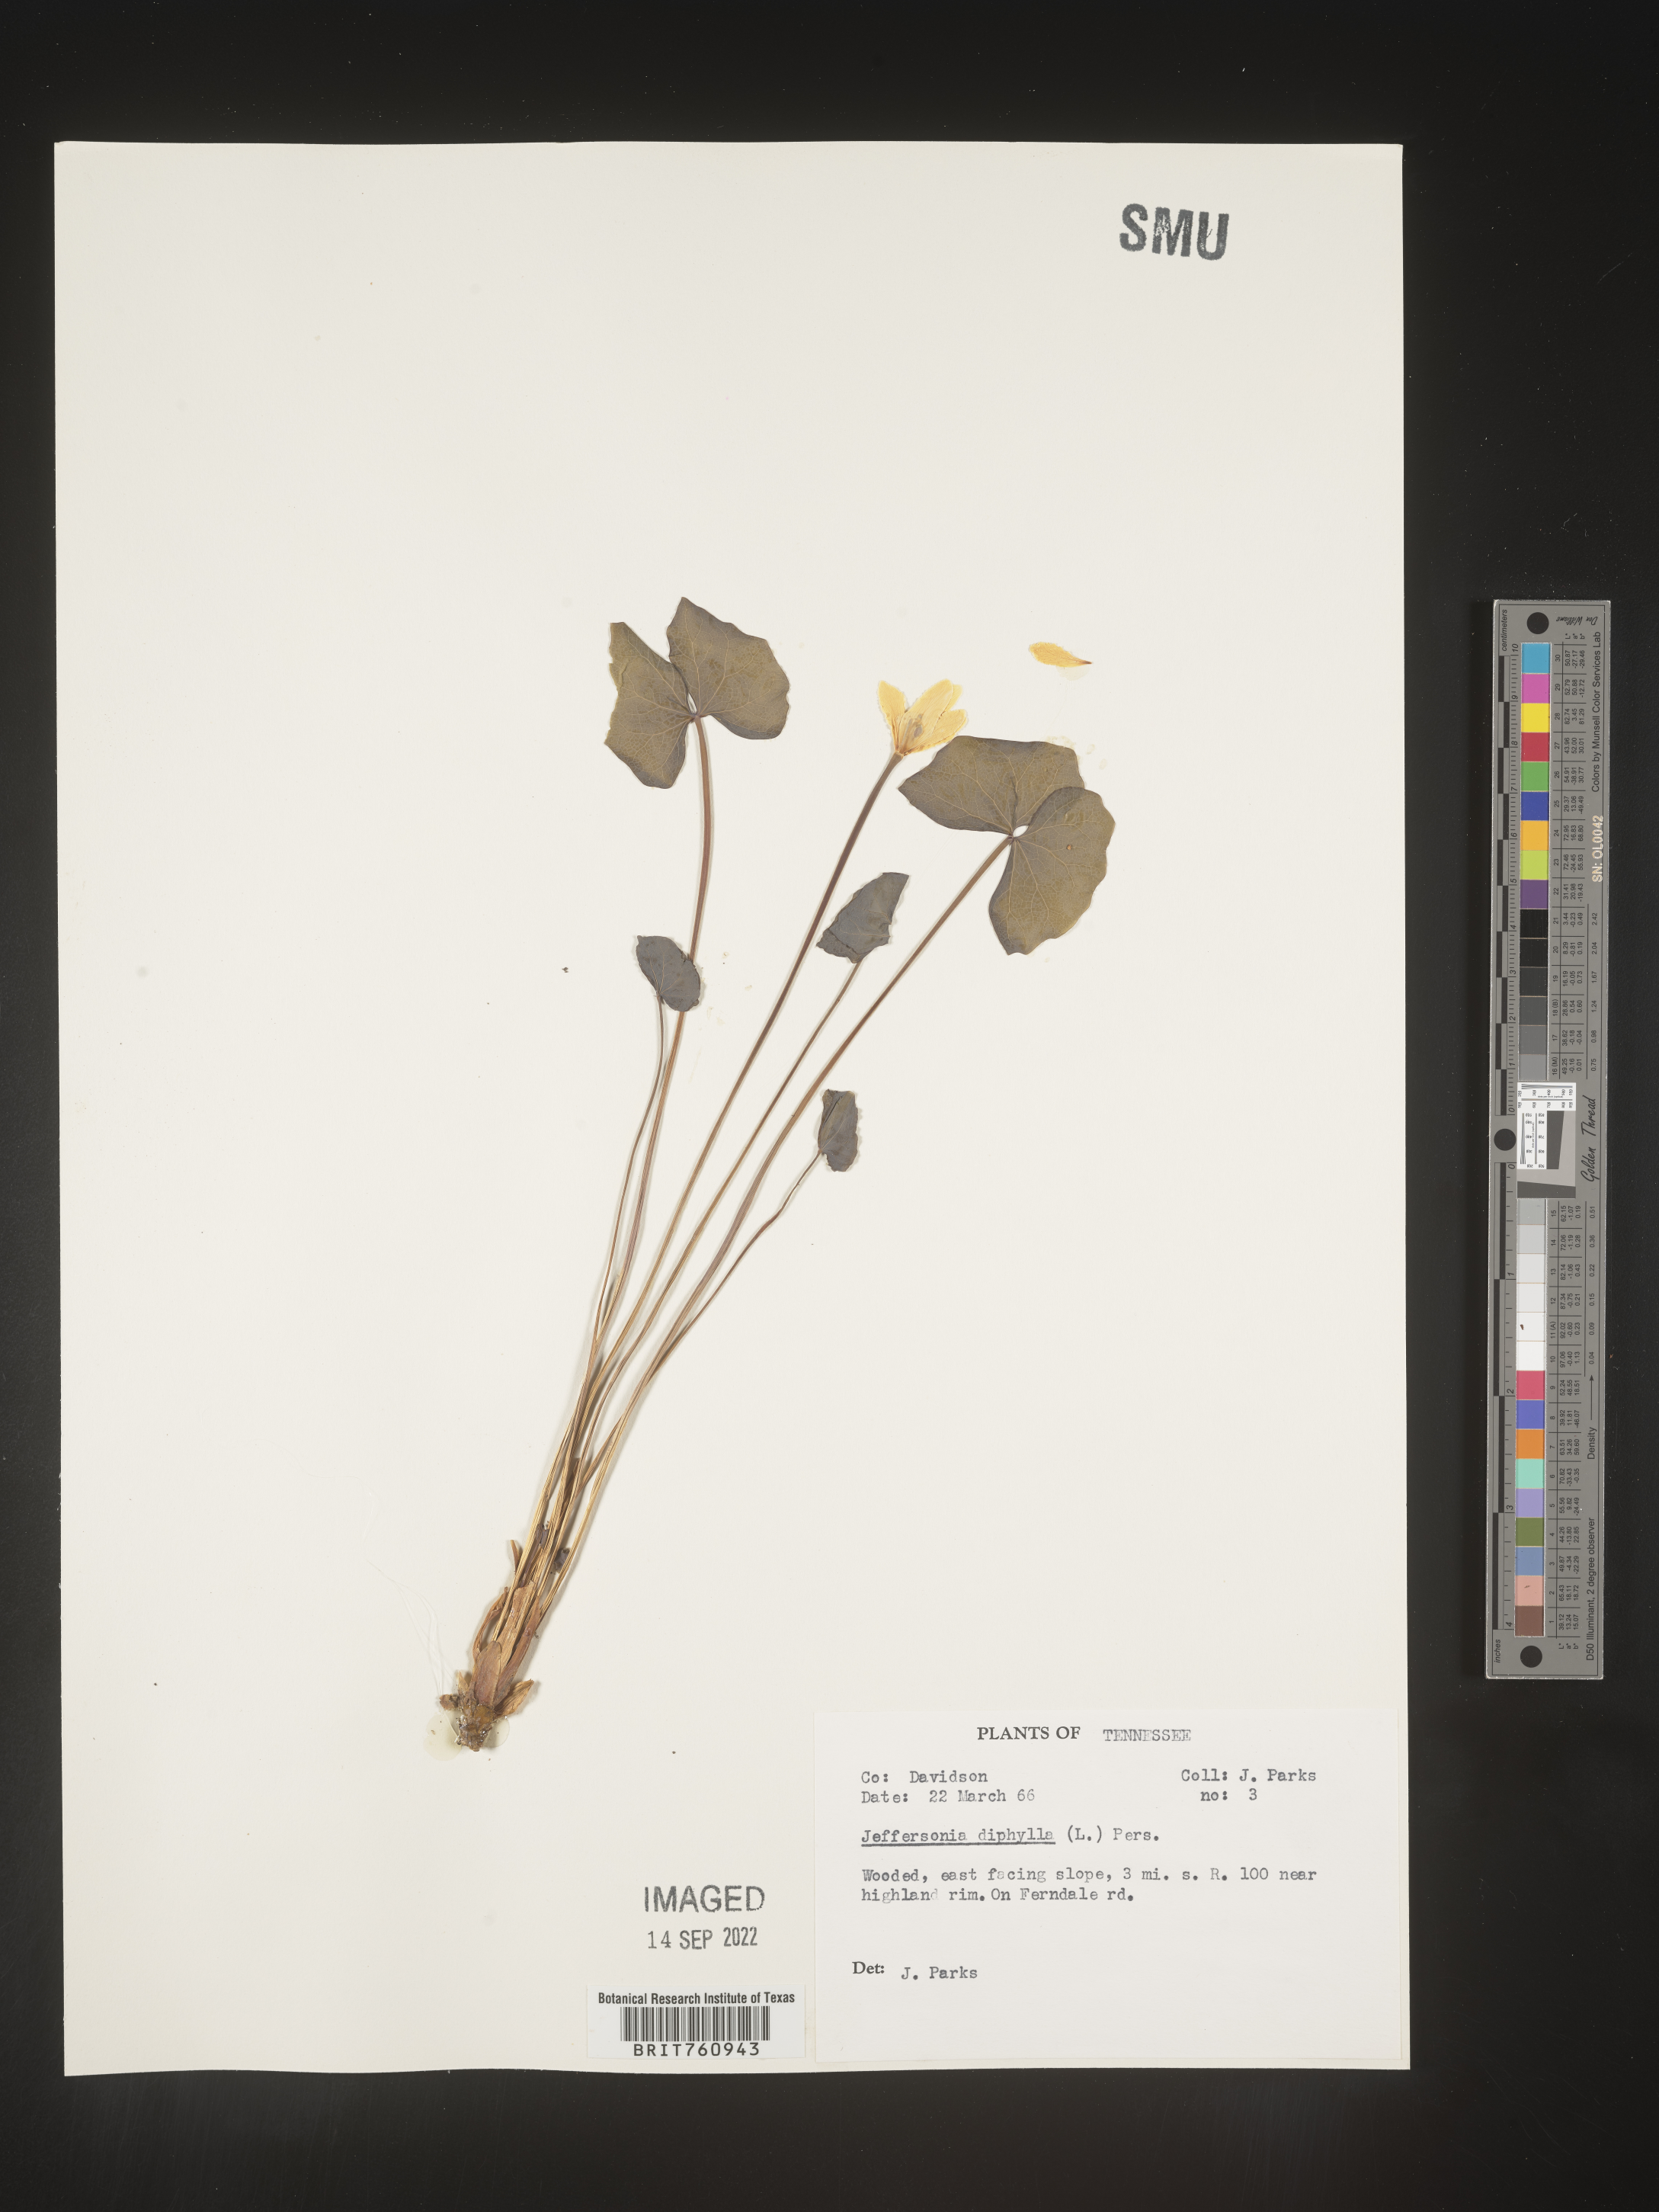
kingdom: Plantae
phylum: Tracheophyta
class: Magnoliopsida
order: Ranunculales
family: Berberidaceae
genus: Jeffersonia
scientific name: Jeffersonia
